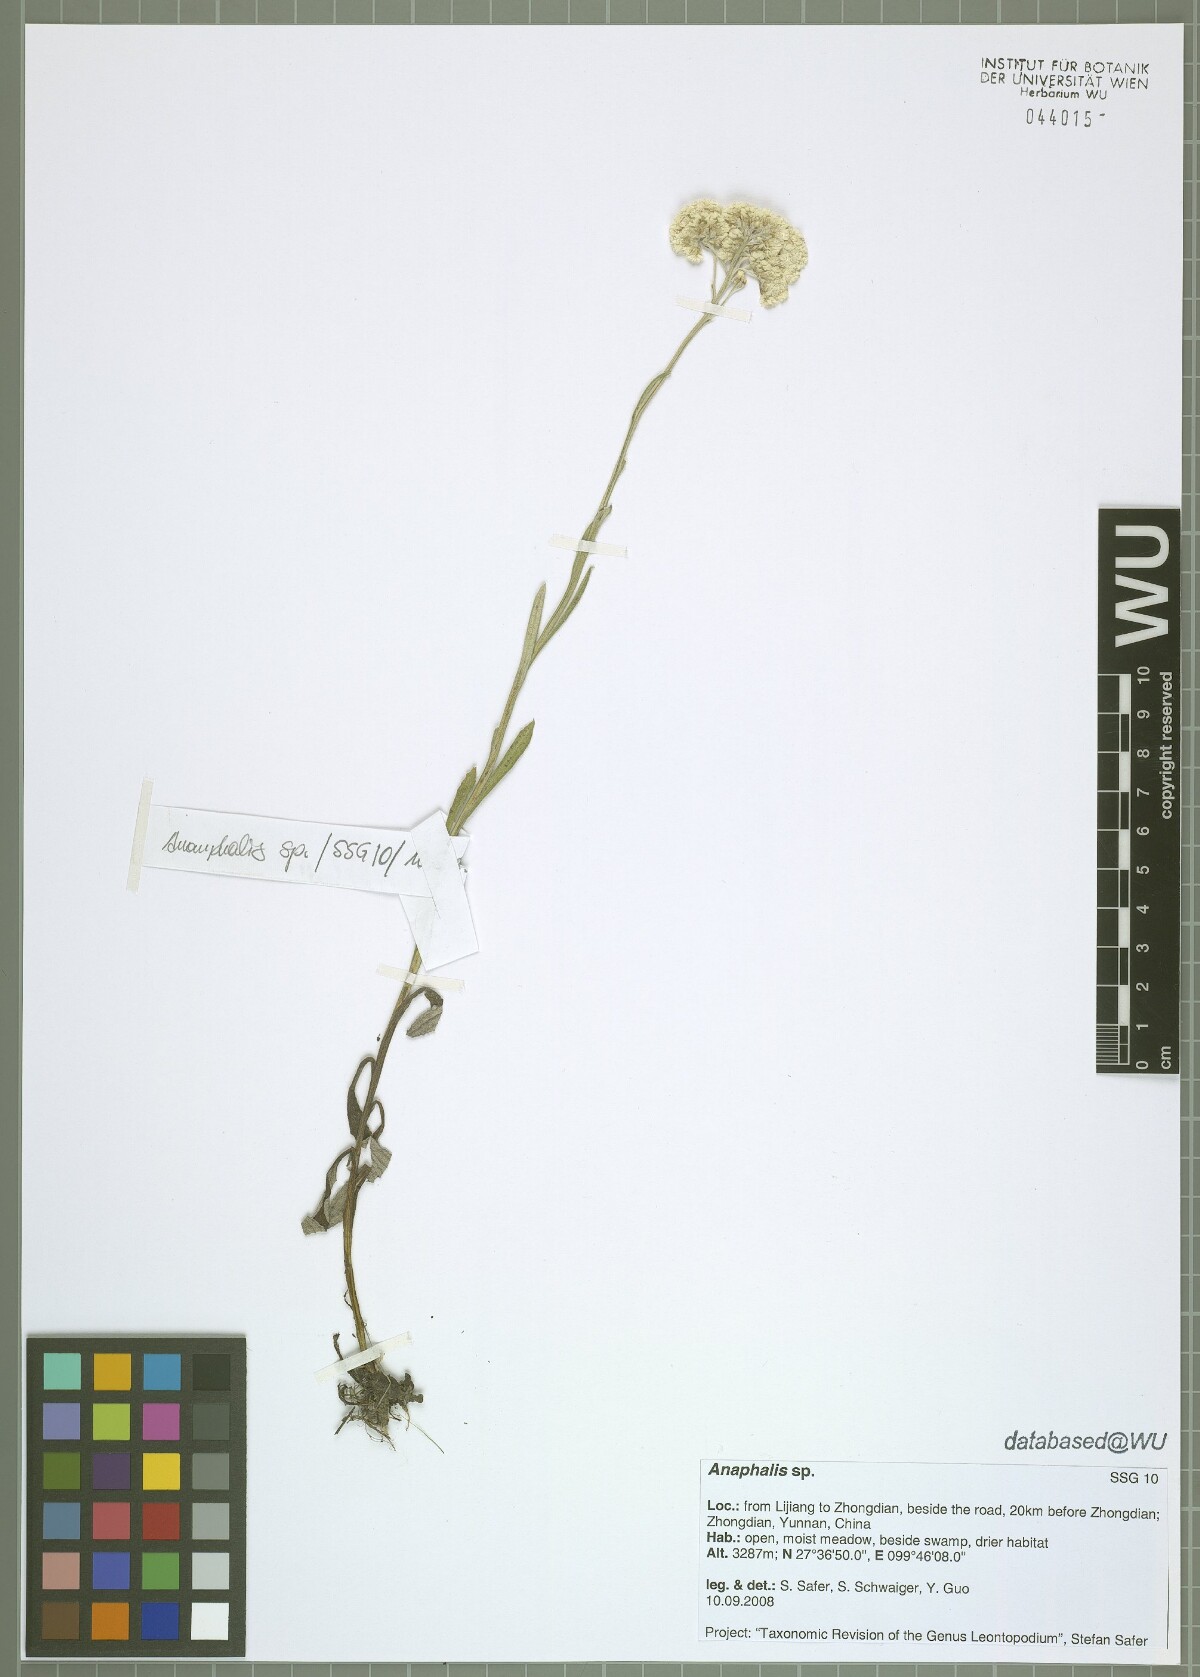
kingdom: Plantae
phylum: Tracheophyta
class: Magnoliopsida
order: Asterales
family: Asteraceae
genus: Anaphalis
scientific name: Anaphalis
